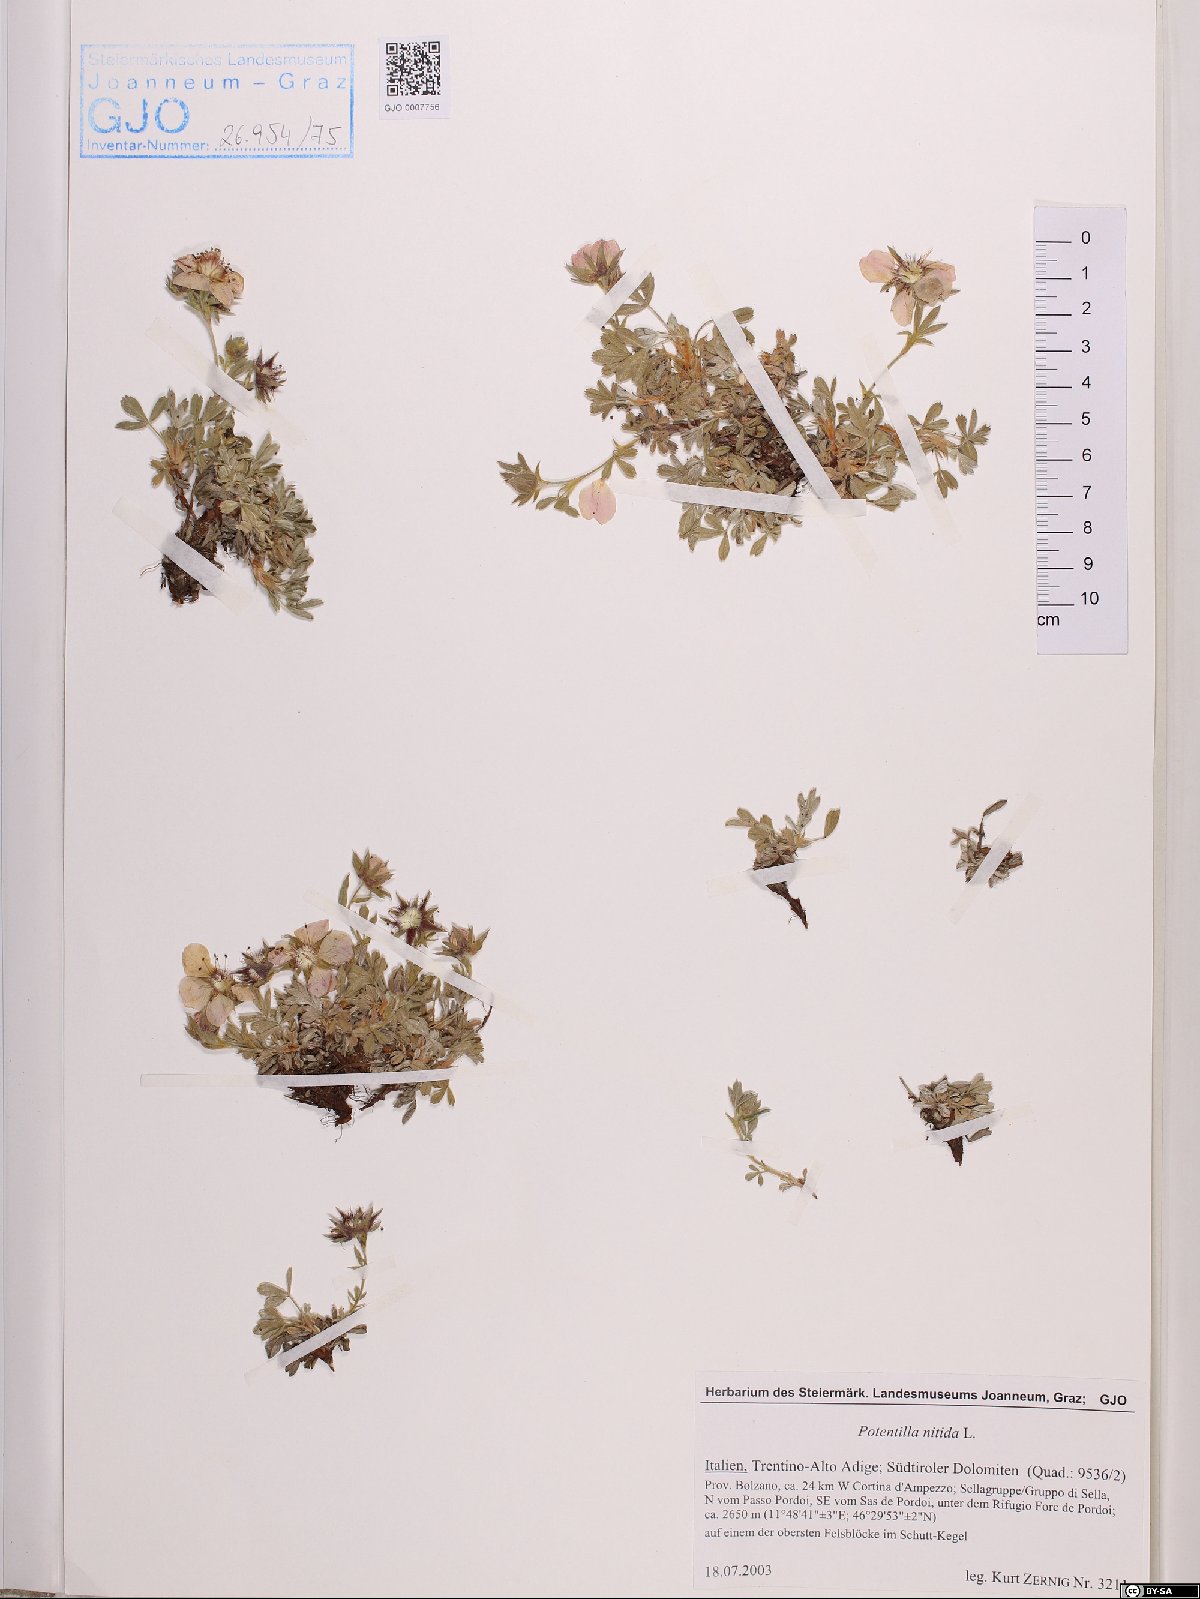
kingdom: Plantae
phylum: Tracheophyta
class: Magnoliopsida
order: Rosales
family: Rosaceae
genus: Potentilla
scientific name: Potentilla nitida
